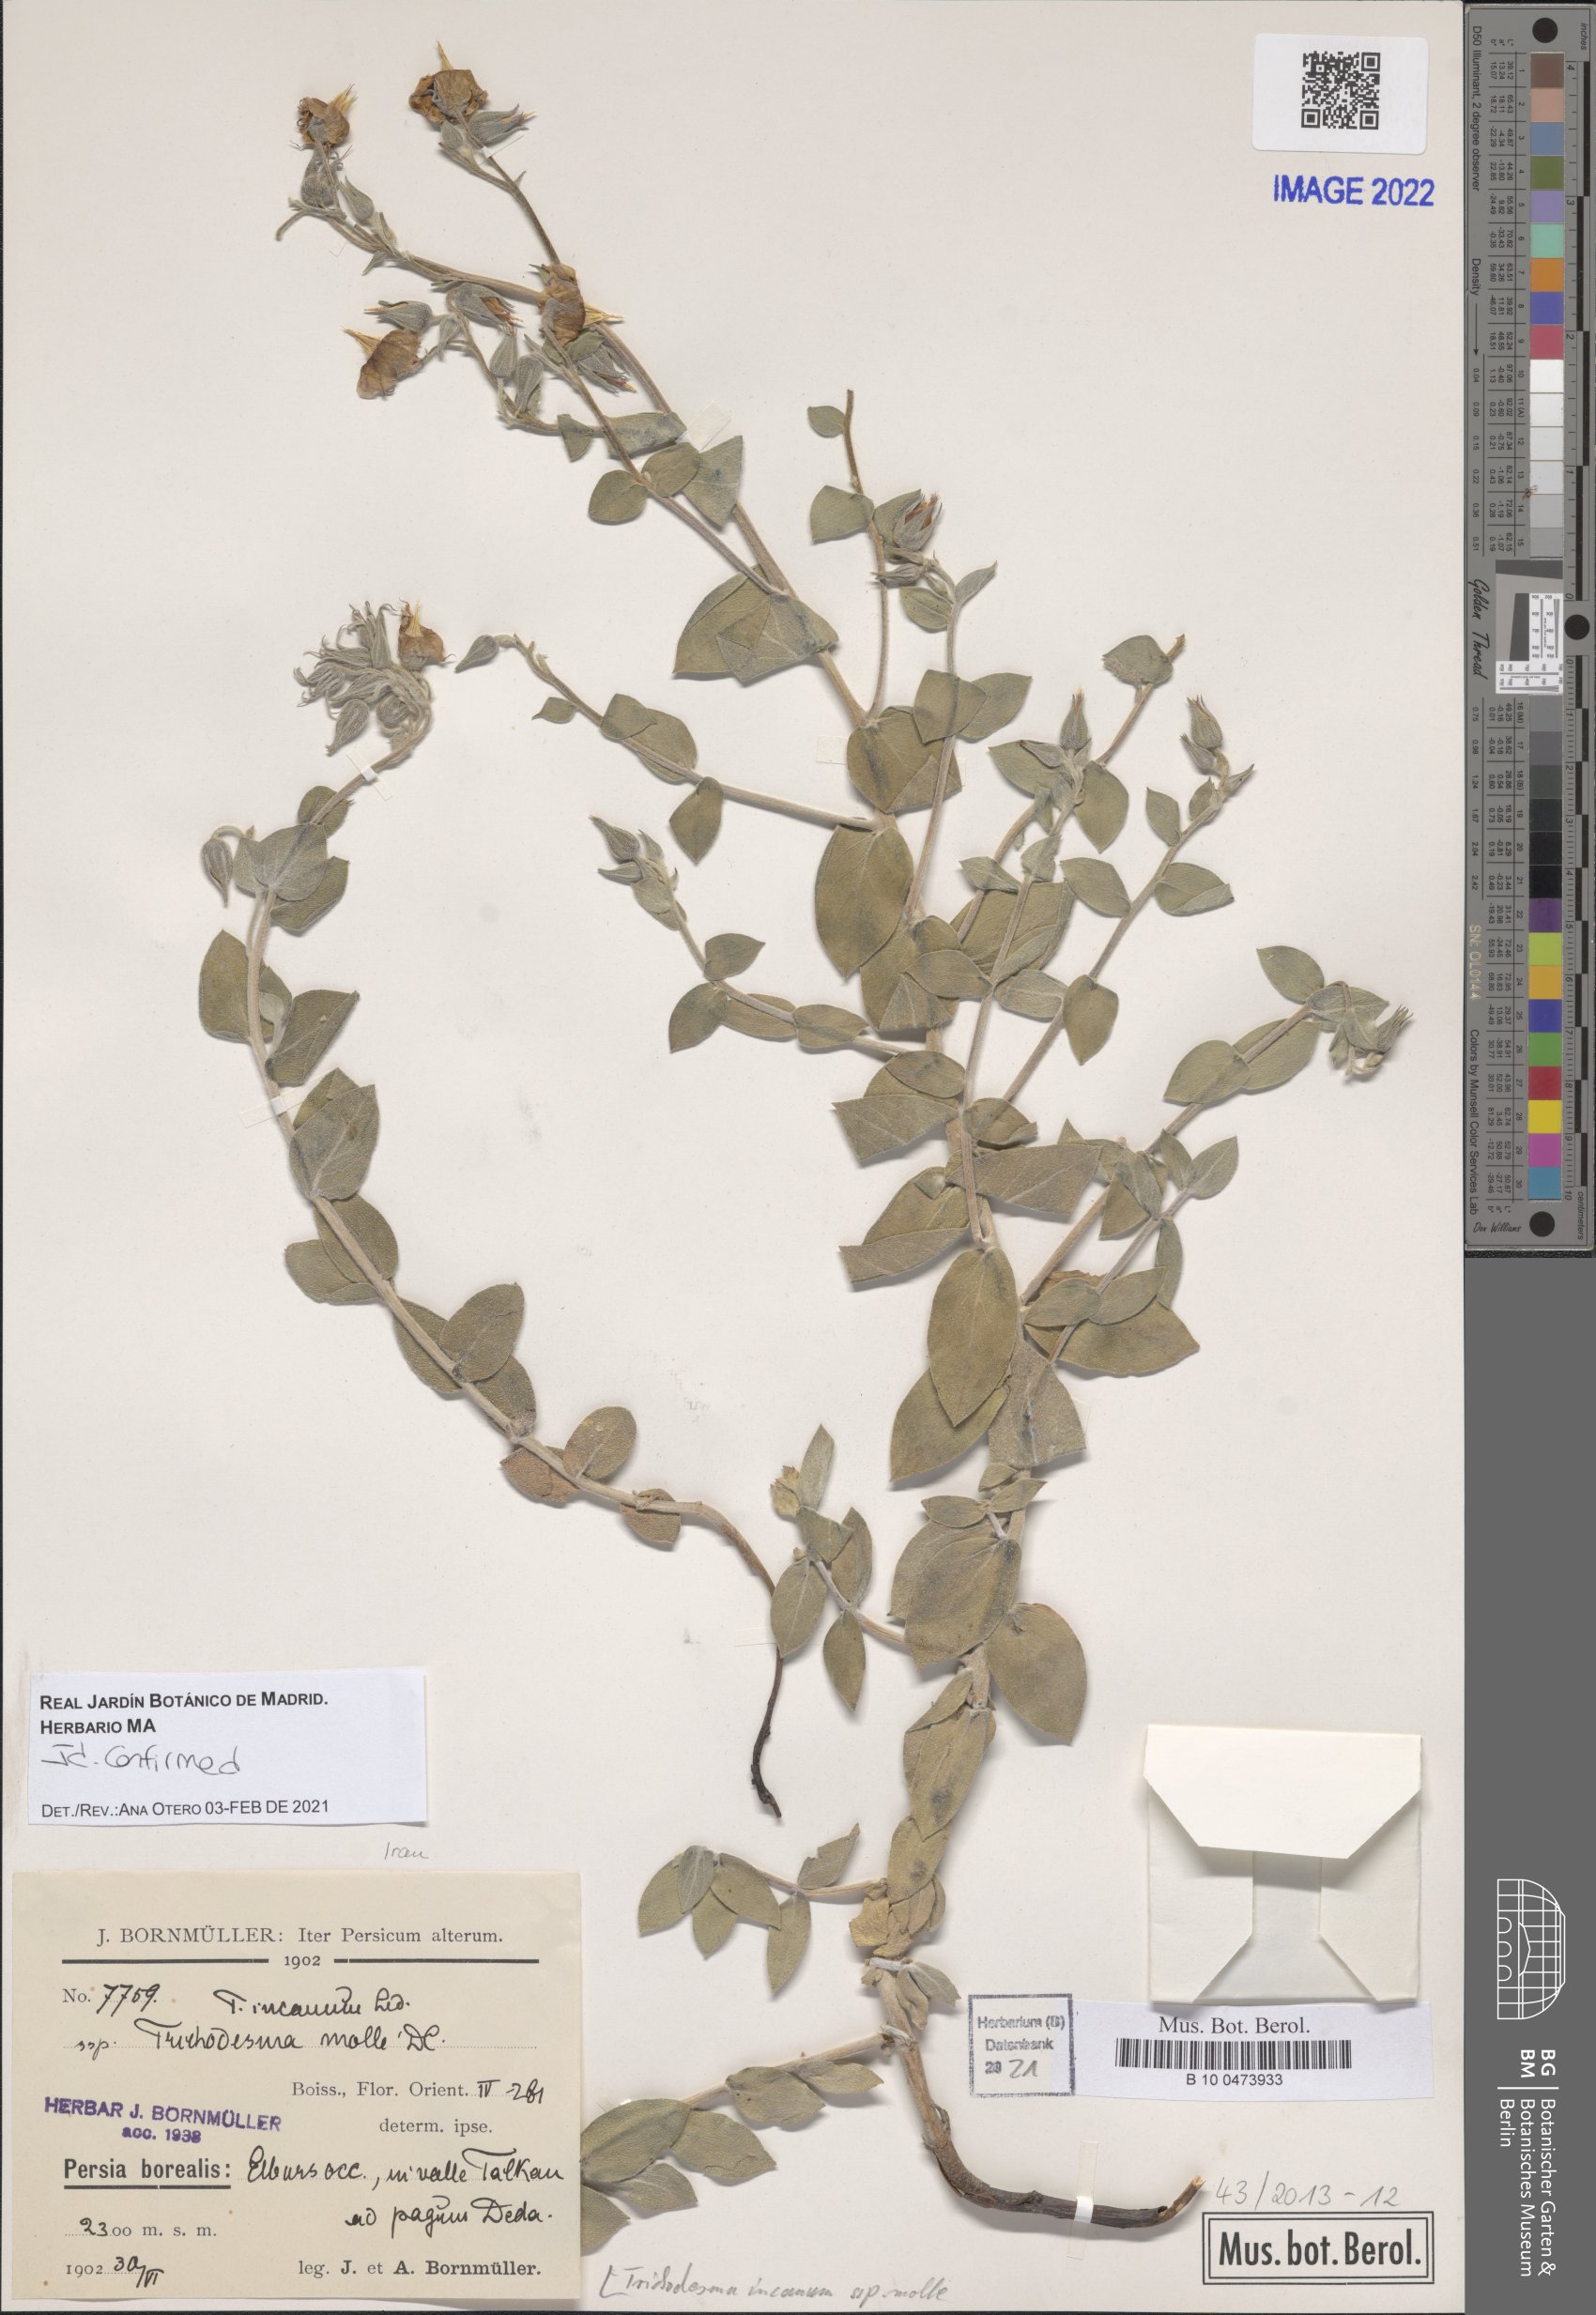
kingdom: Plantae
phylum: Tracheophyta
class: Magnoliopsida
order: Boraginales
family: Boraginaceae
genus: Trichodesma
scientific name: Trichodesma incanum
